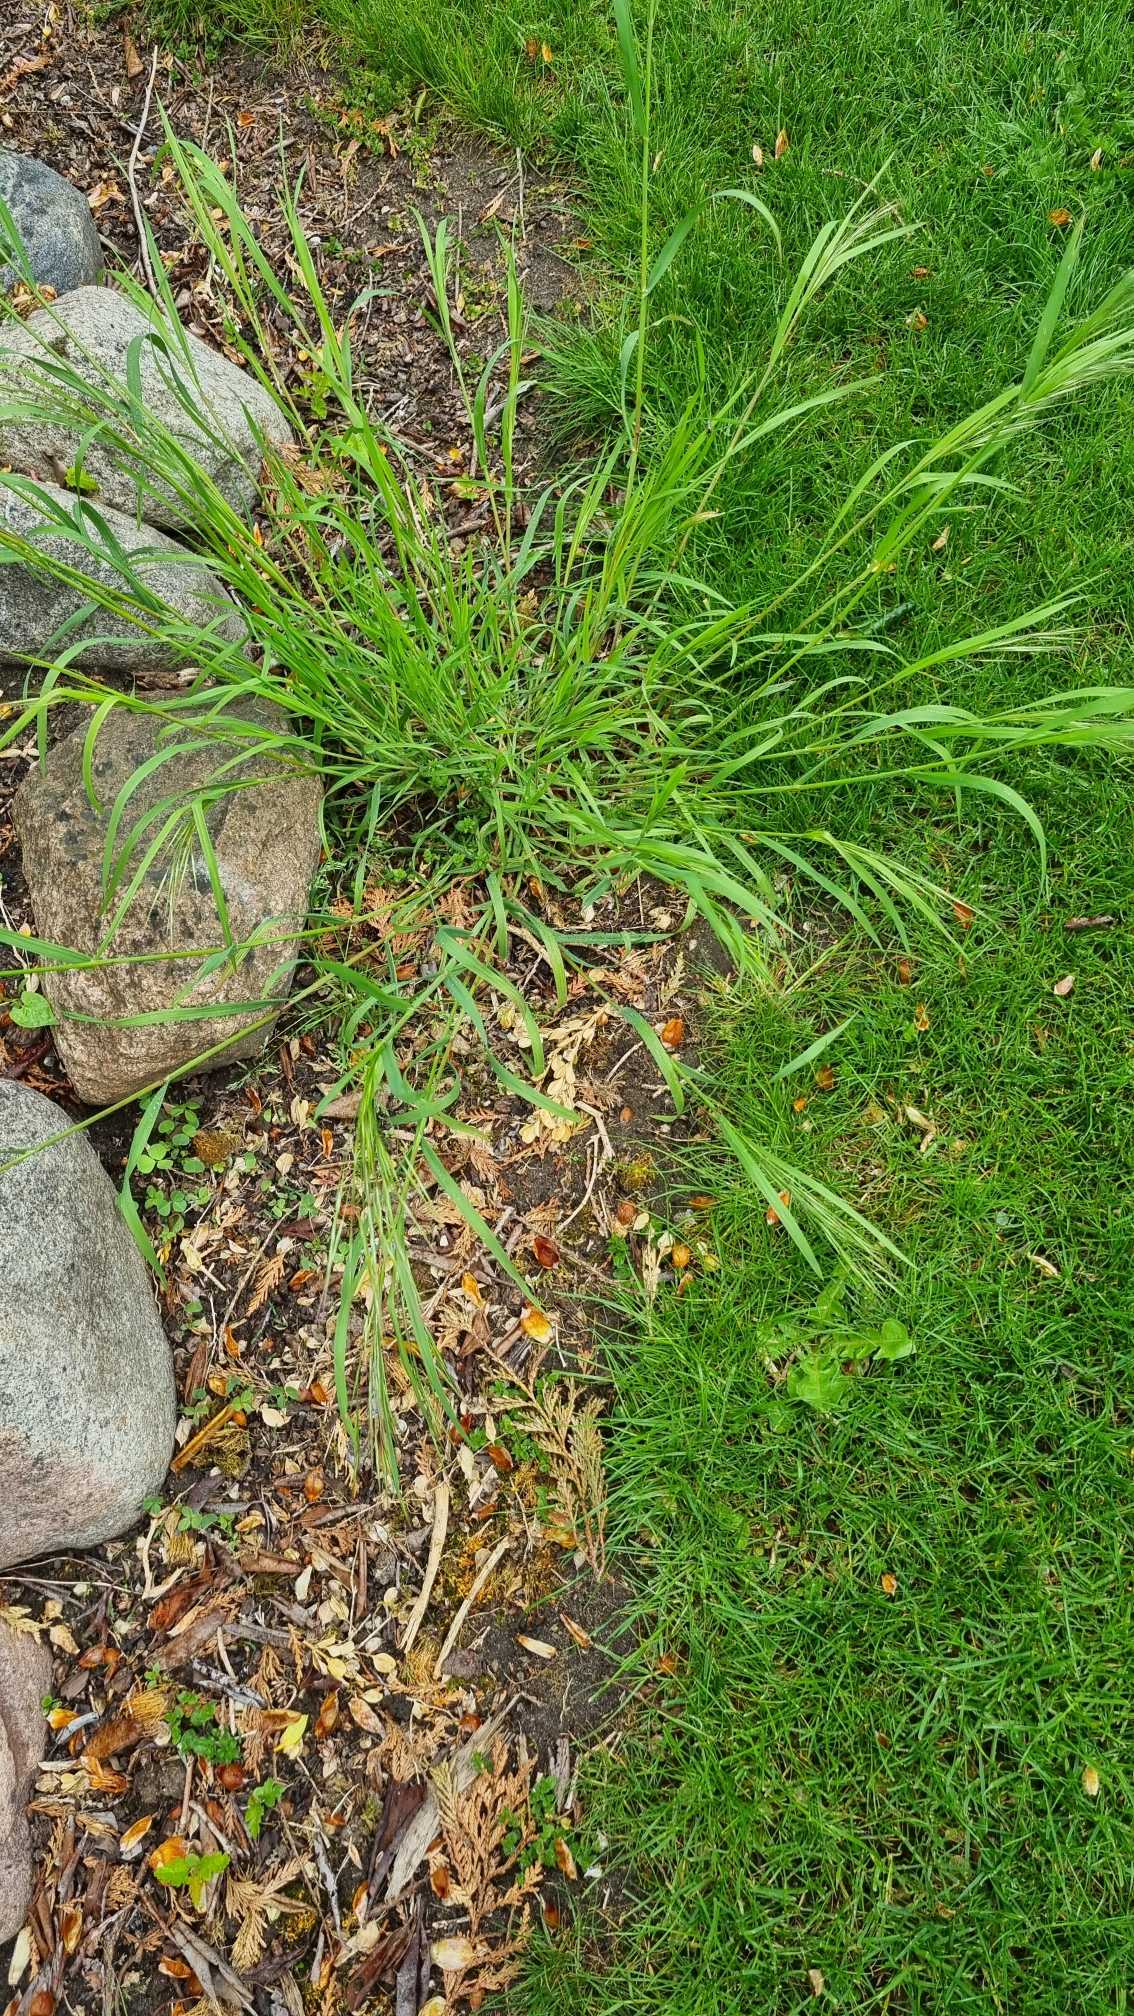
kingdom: Plantae
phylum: Tracheophyta
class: Liliopsida
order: Poales
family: Poaceae
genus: Bromus
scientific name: Bromus sterilis
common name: Gold hejre
